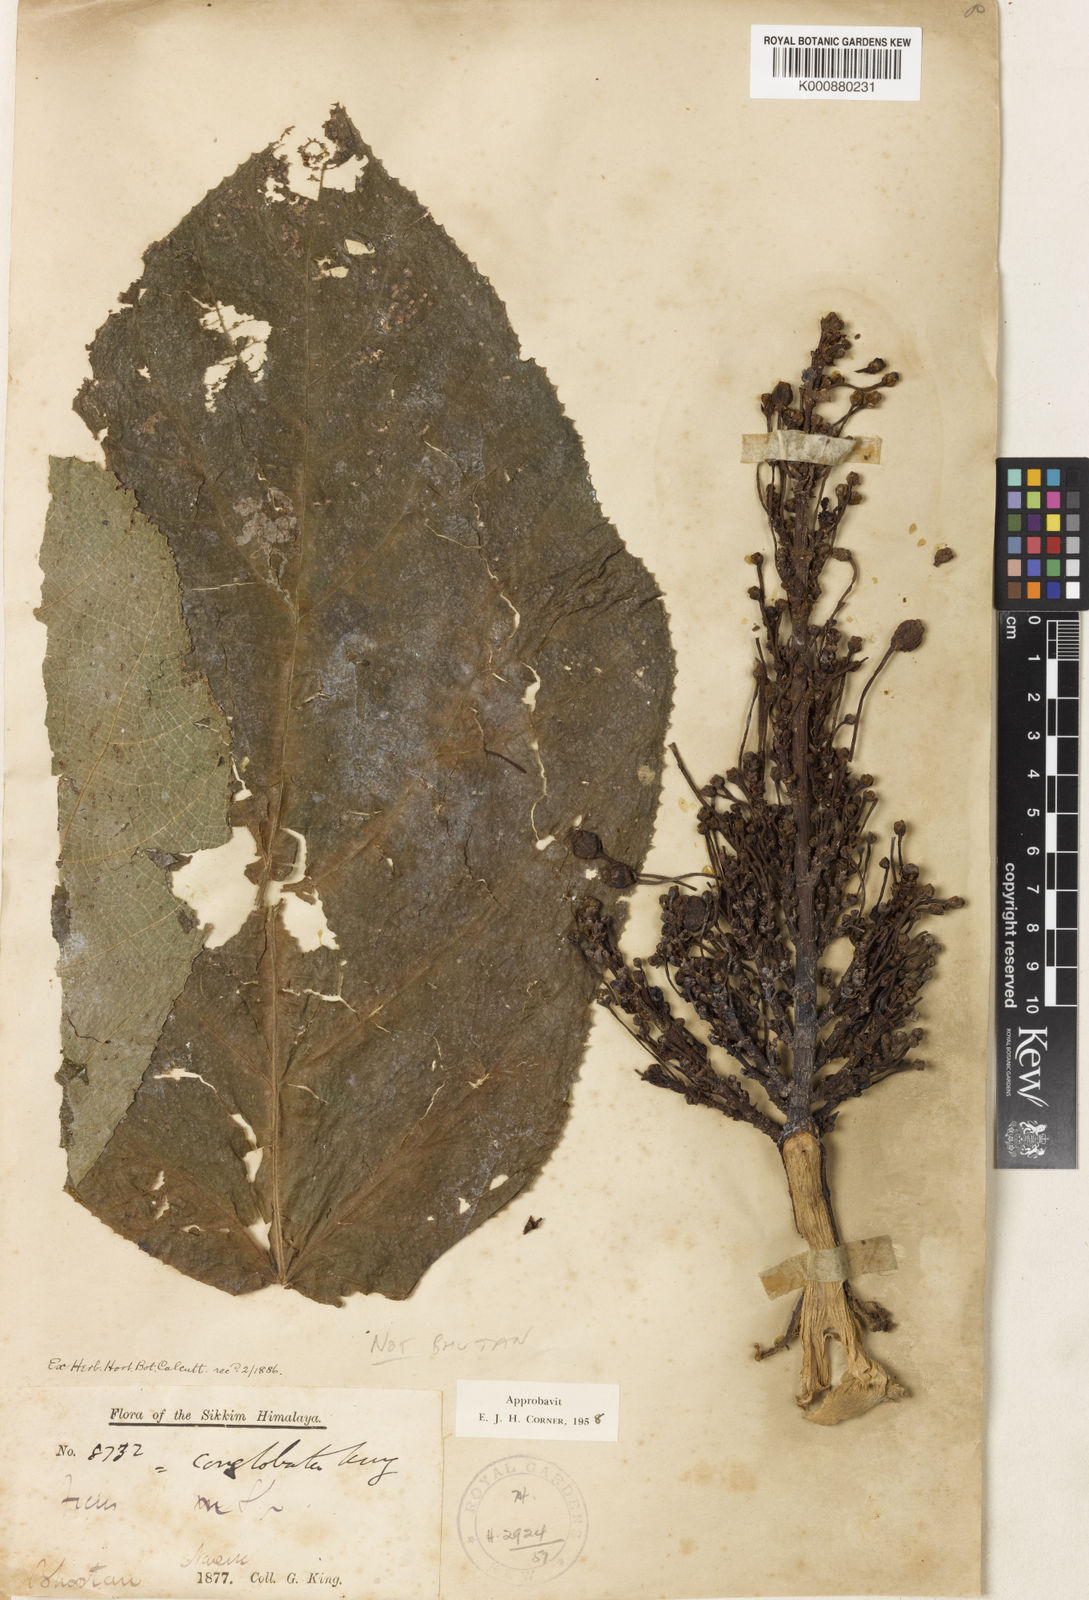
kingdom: Plantae
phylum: Tracheophyta
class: Magnoliopsida
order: Rosales
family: Moraceae
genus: Ficus
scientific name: Ficus conglobata
